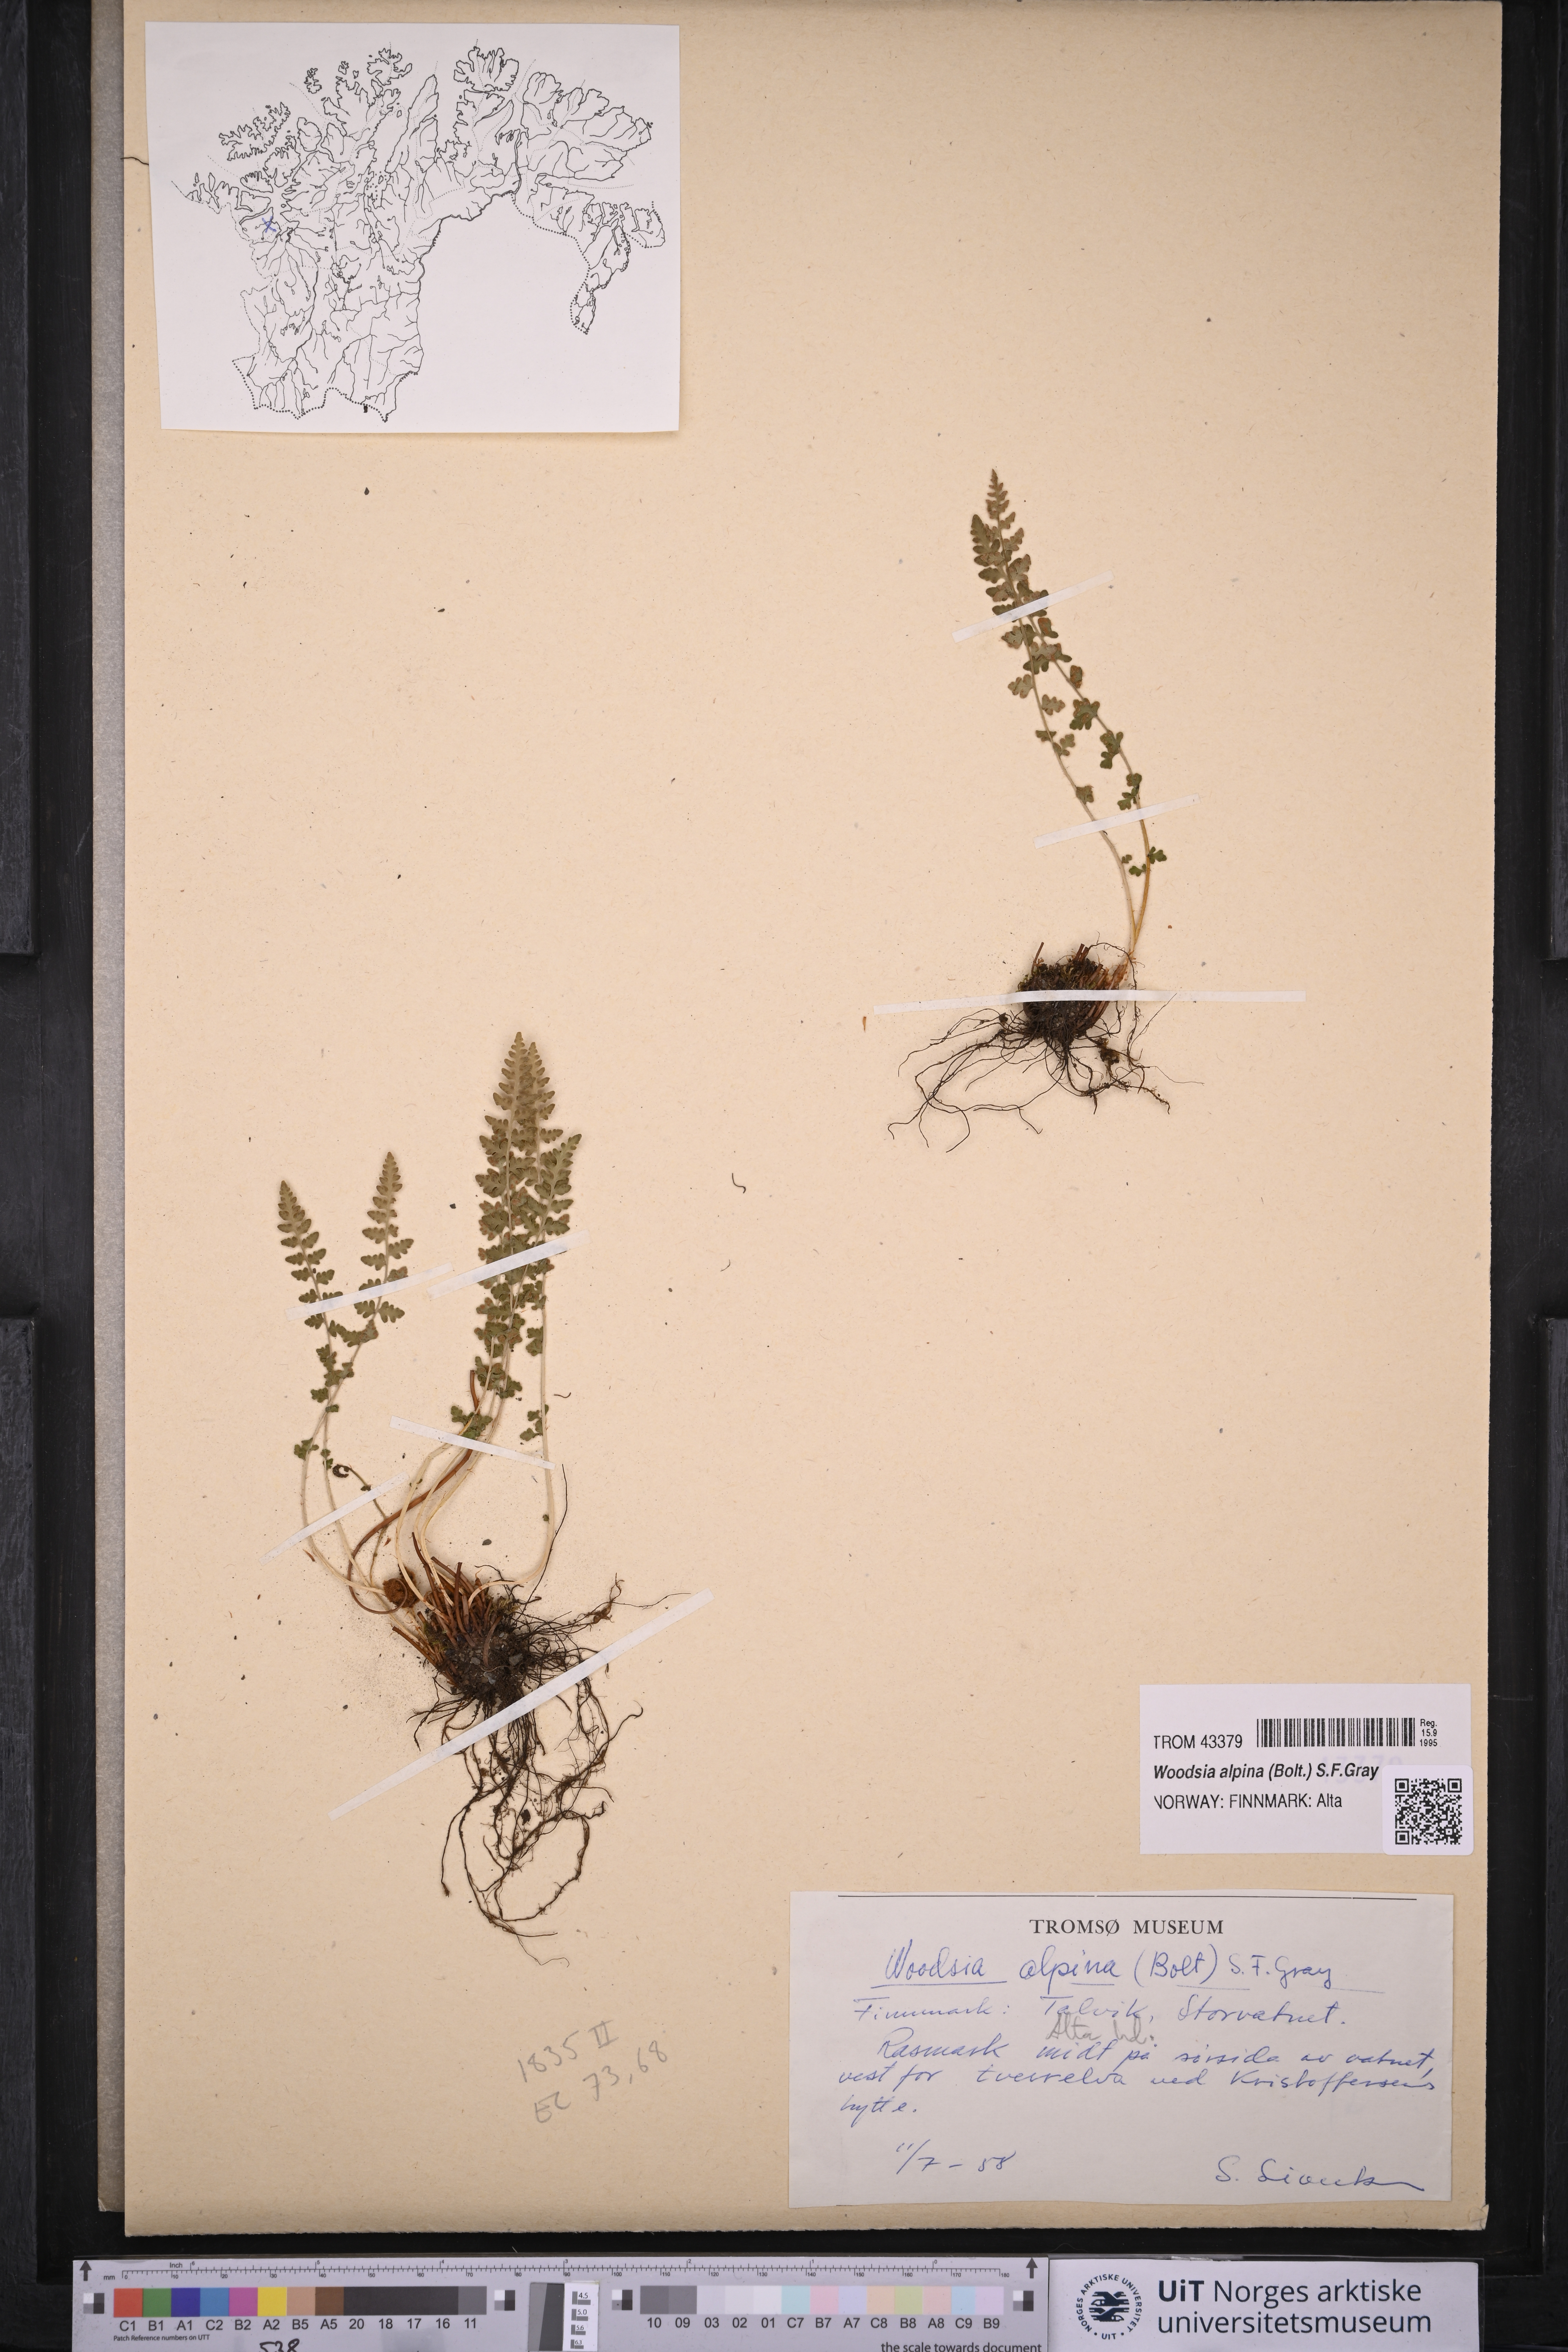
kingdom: Plantae
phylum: Tracheophyta
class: Polypodiopsida
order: Polypodiales
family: Woodsiaceae
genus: Woodsia
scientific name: Woodsia alpina
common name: Alpine woodsia
